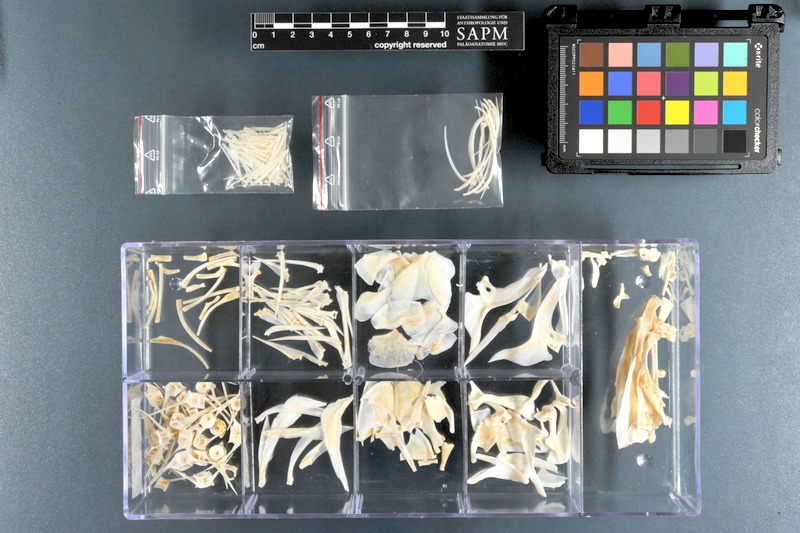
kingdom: Animalia
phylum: Chordata
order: Perciformes
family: Lutjanidae
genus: Lutjanus
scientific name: Lutjanus coeruleolineatus
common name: Blue line snapper
